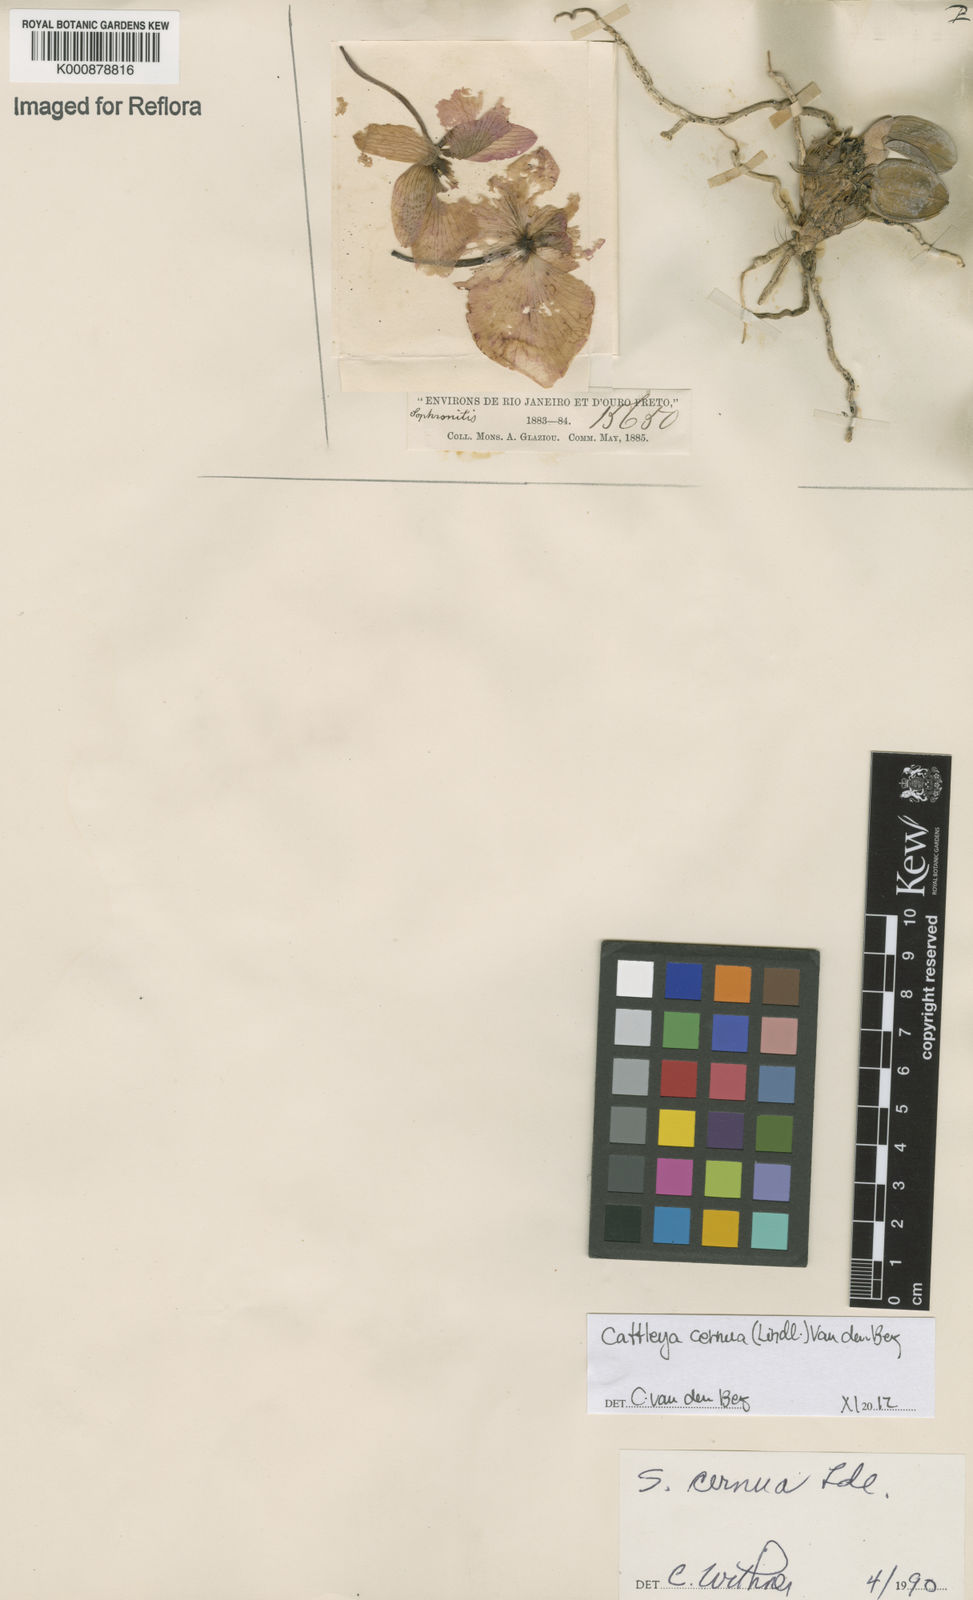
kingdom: Plantae
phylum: Tracheophyta
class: Liliopsida
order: Asparagales
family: Orchidaceae
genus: Cattleya
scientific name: Cattleya
